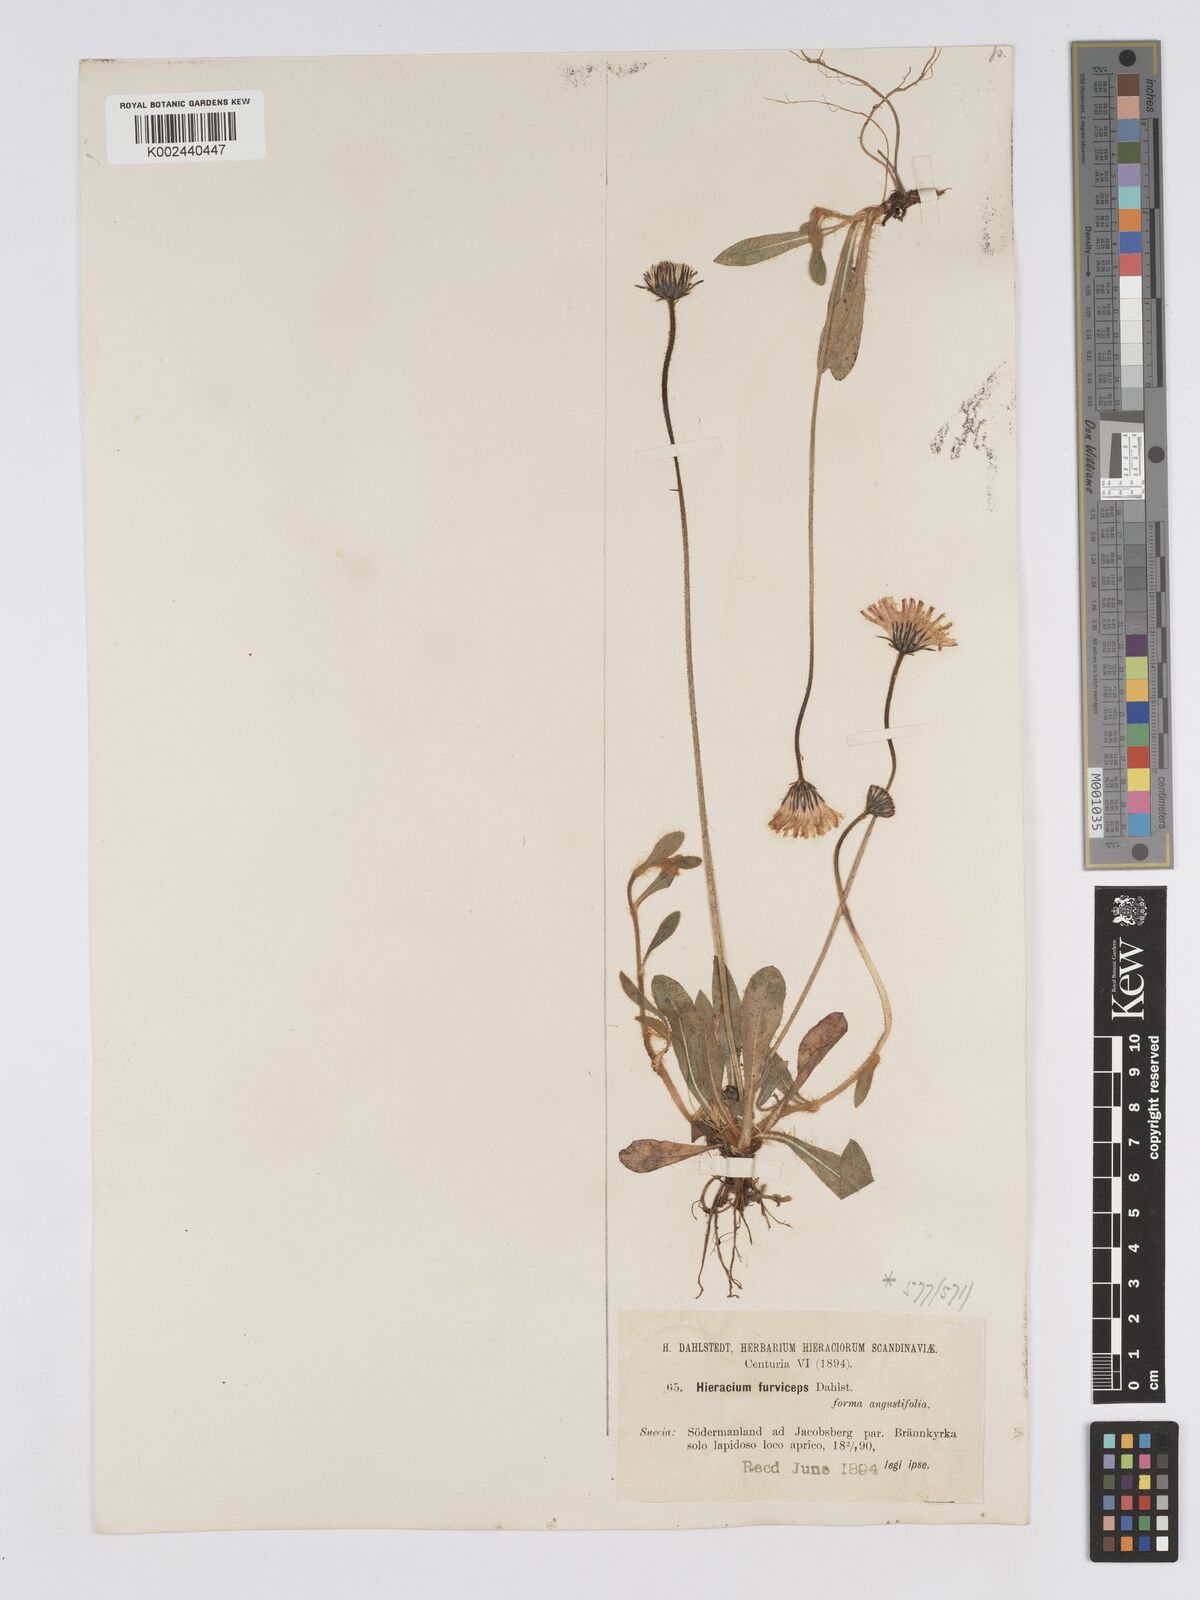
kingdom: Plantae
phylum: Tracheophyta
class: Magnoliopsida
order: Asterales
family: Asteraceae
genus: Pilosella
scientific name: Pilosella officinarum
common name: Mouse-ear hawkweed
